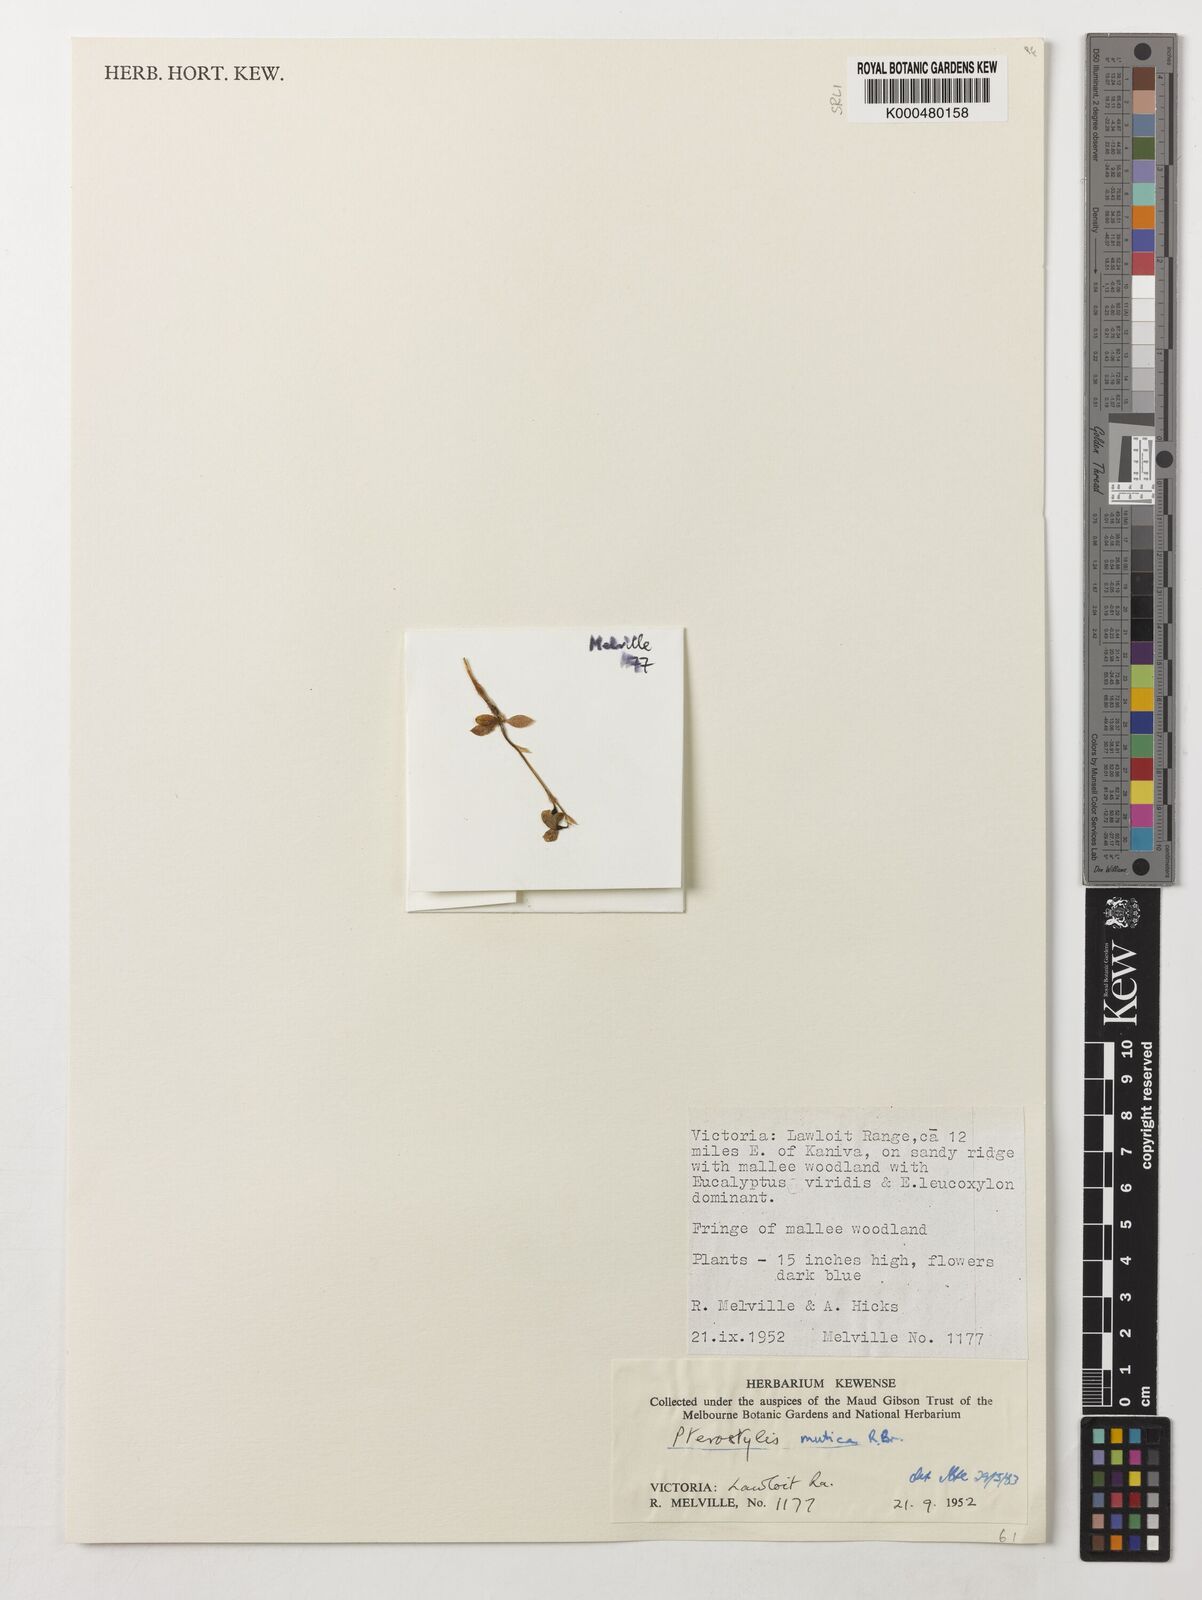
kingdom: Plantae
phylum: Tracheophyta
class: Liliopsida
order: Asparagales
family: Orchidaceae
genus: Pterostylis
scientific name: Pterostylis mutica
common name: Midget greenhood
